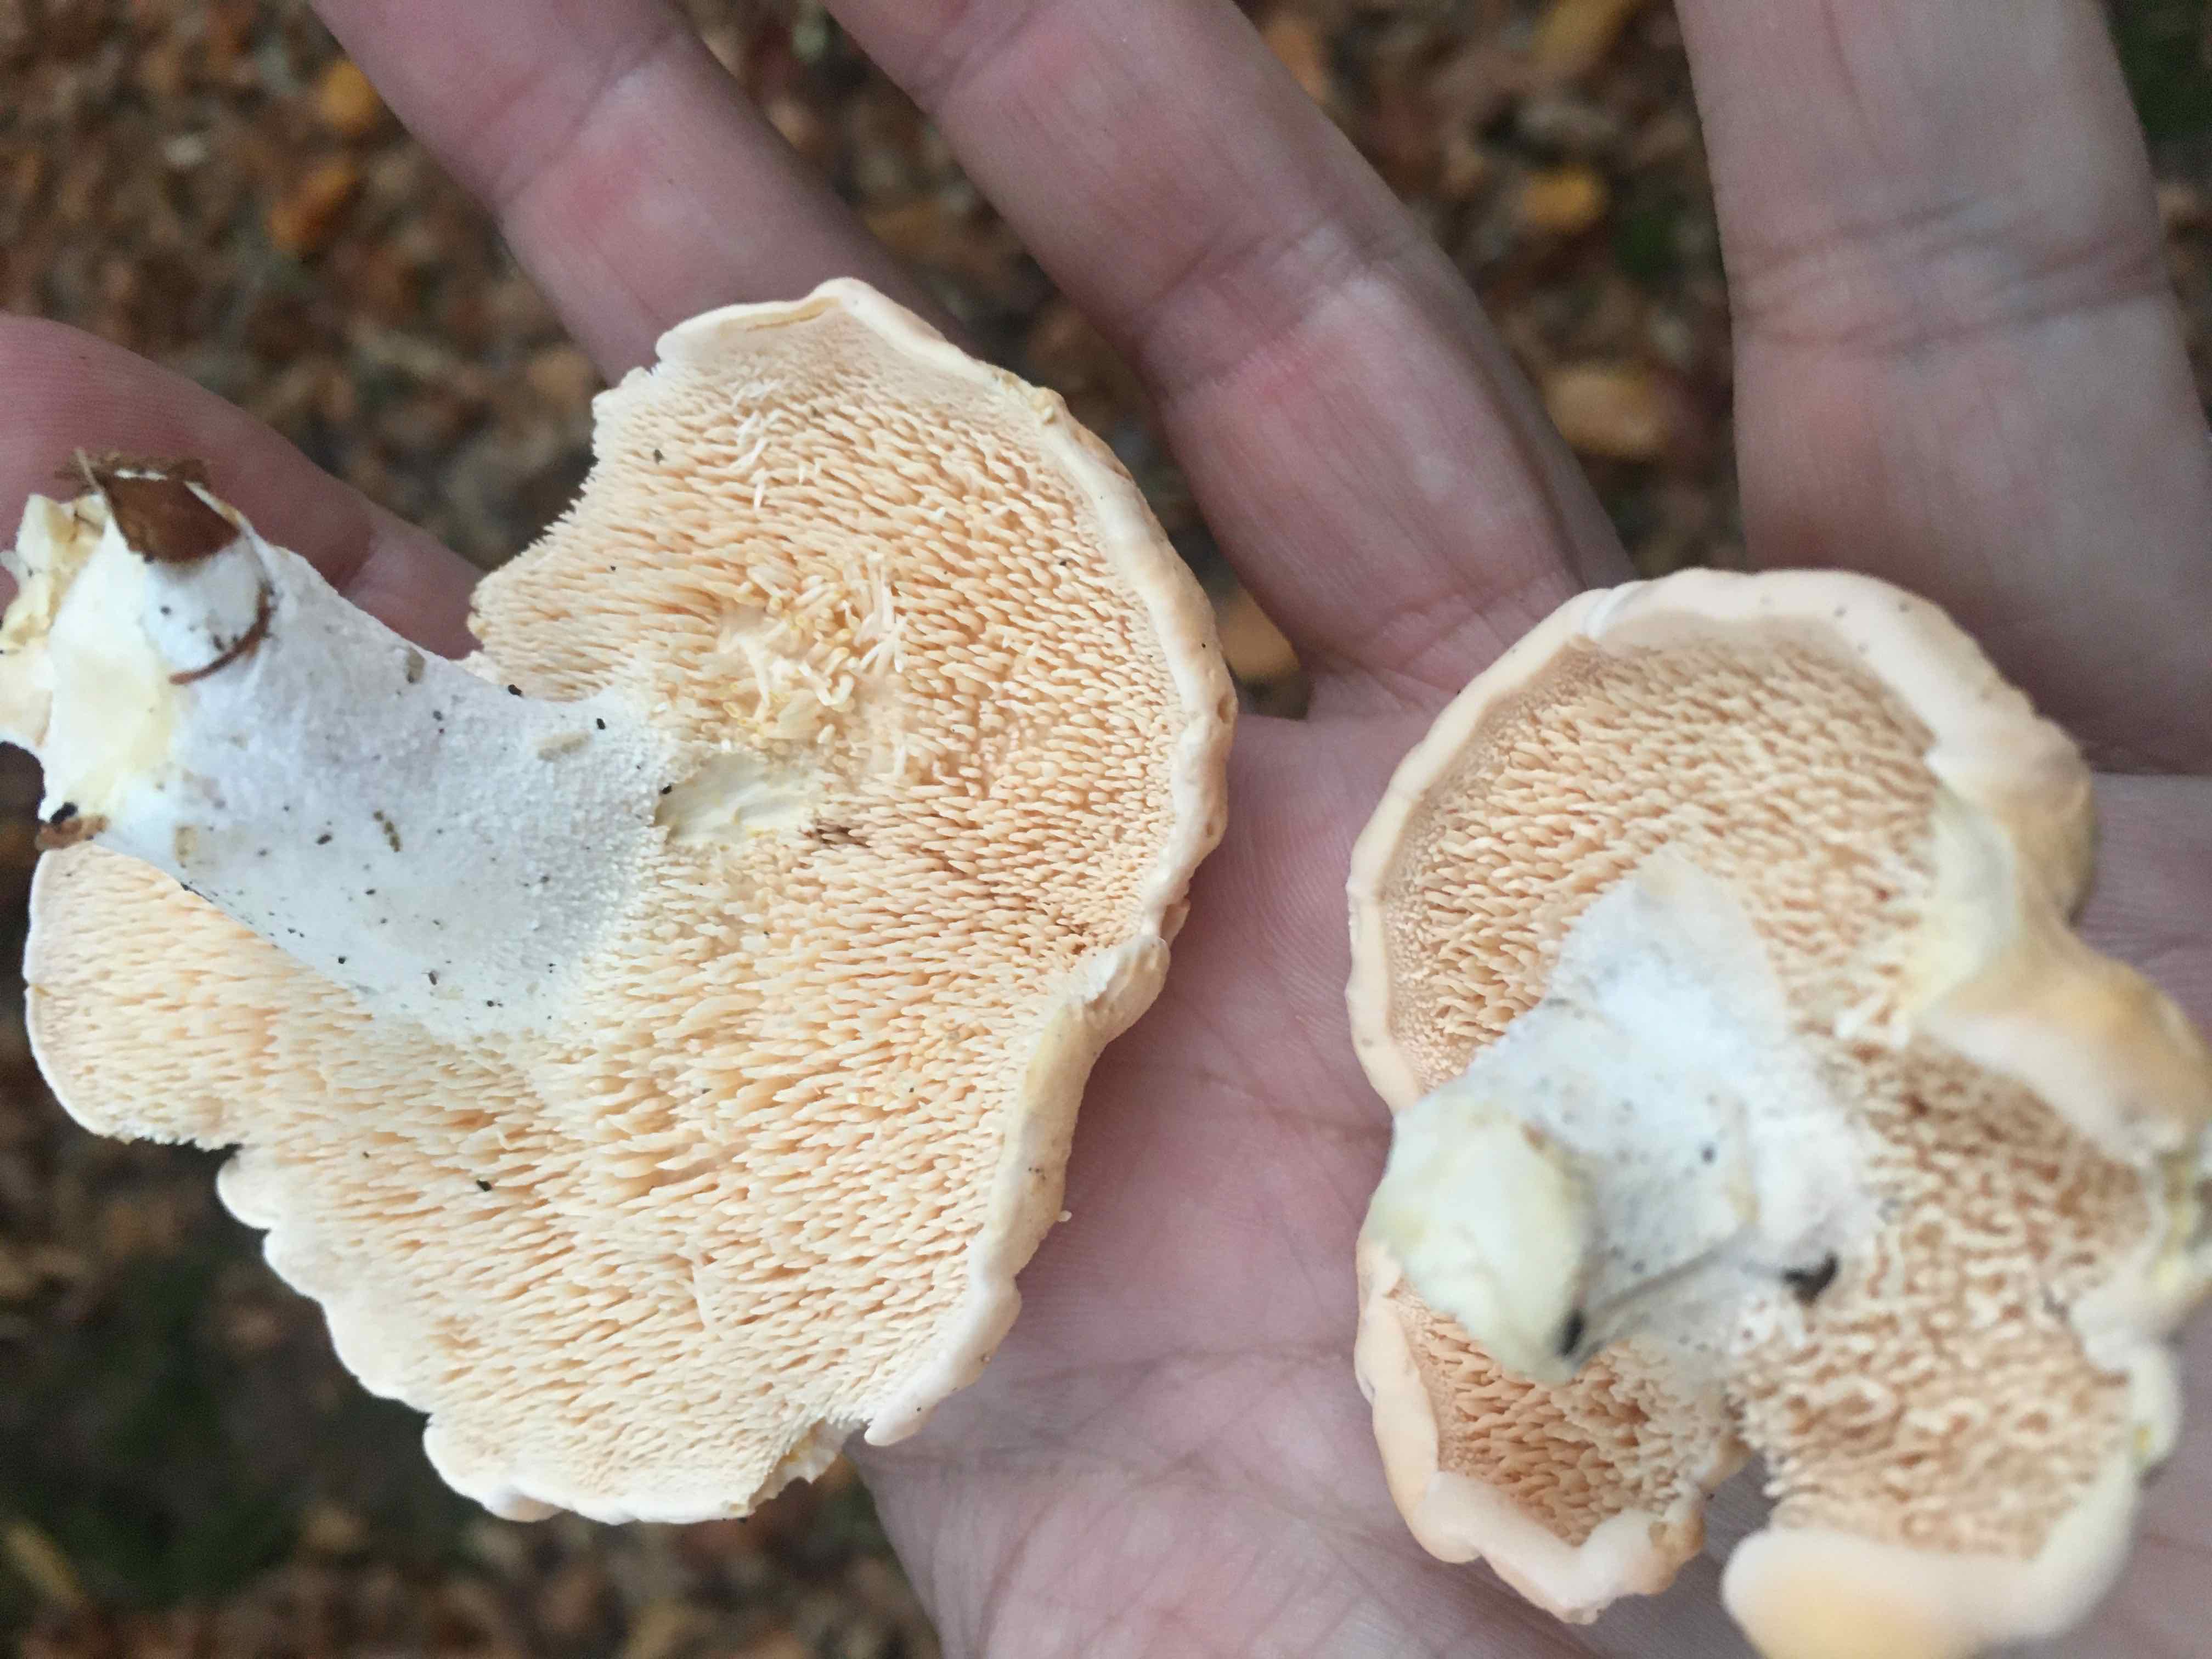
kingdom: Fungi
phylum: Basidiomycota
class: Agaricomycetes
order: Cantharellales
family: Hydnaceae
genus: Hydnum
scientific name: Hydnum
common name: pigsvamp
